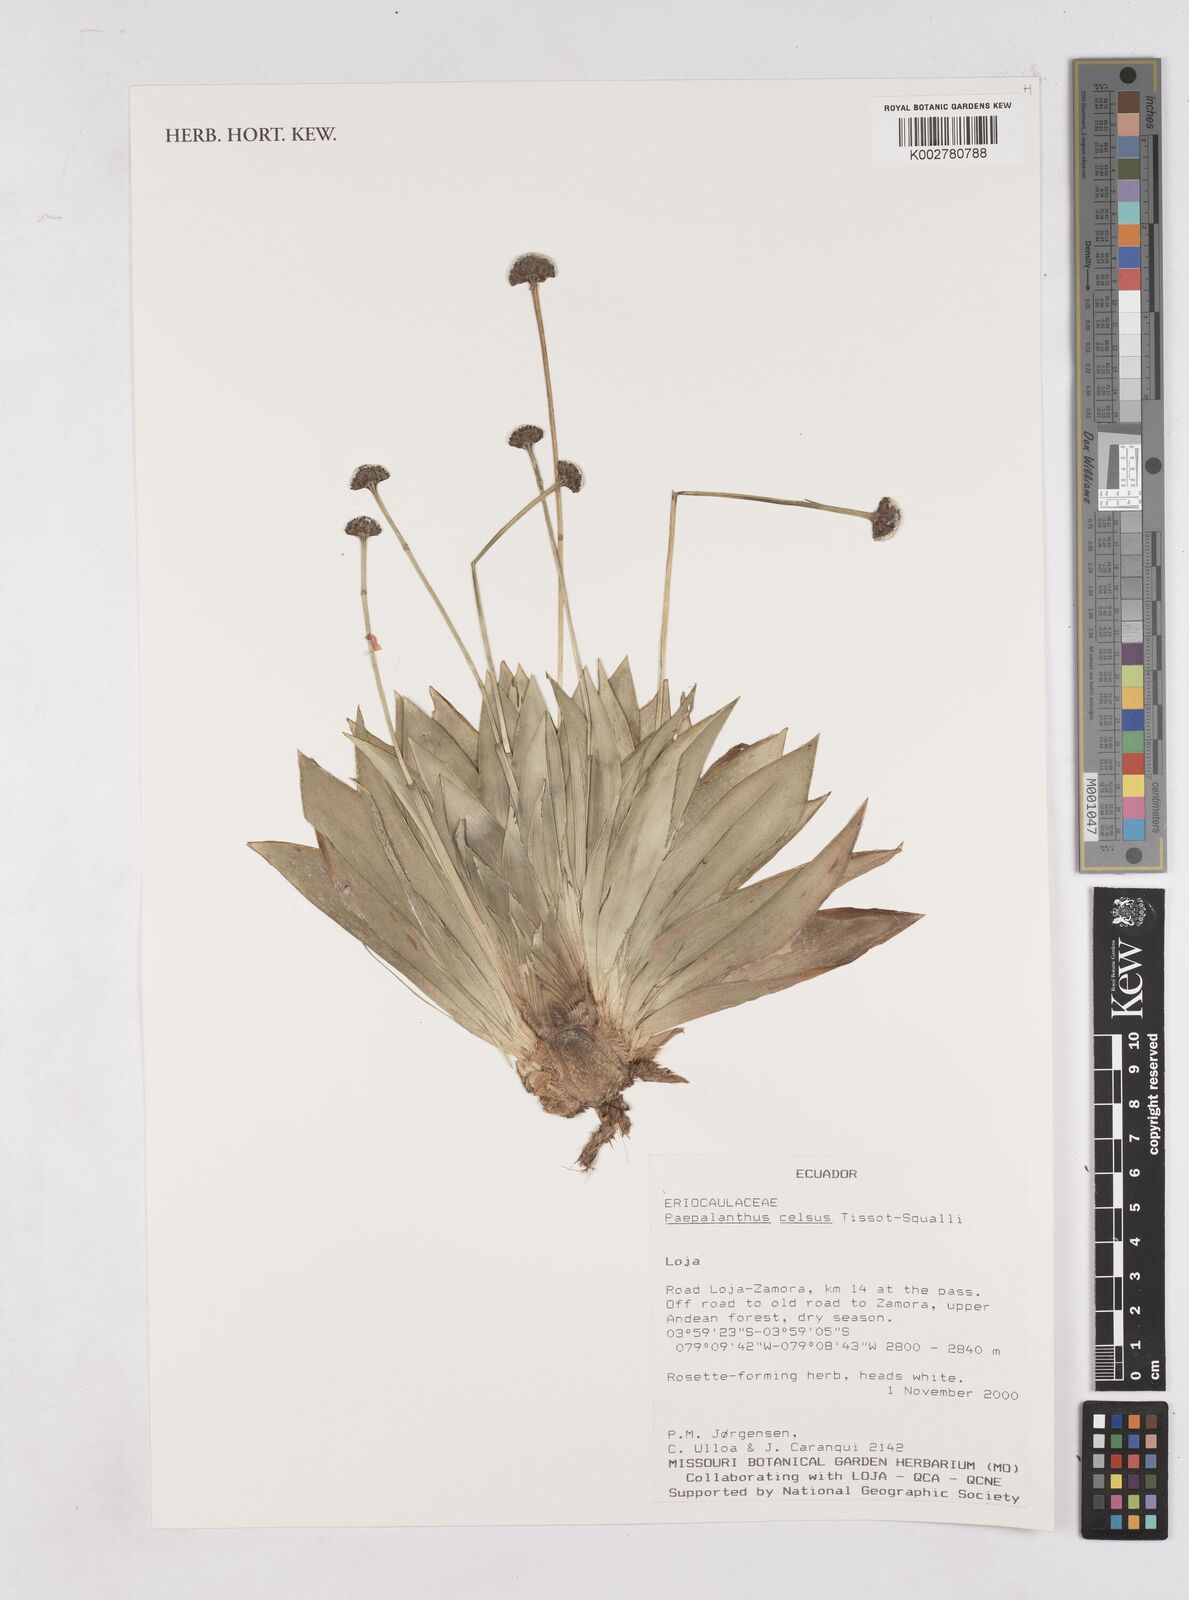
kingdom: Plantae
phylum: Tracheophyta
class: Liliopsida
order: Poales
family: Eriocaulaceae
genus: Paepalanthus
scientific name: Paepalanthus celsus
